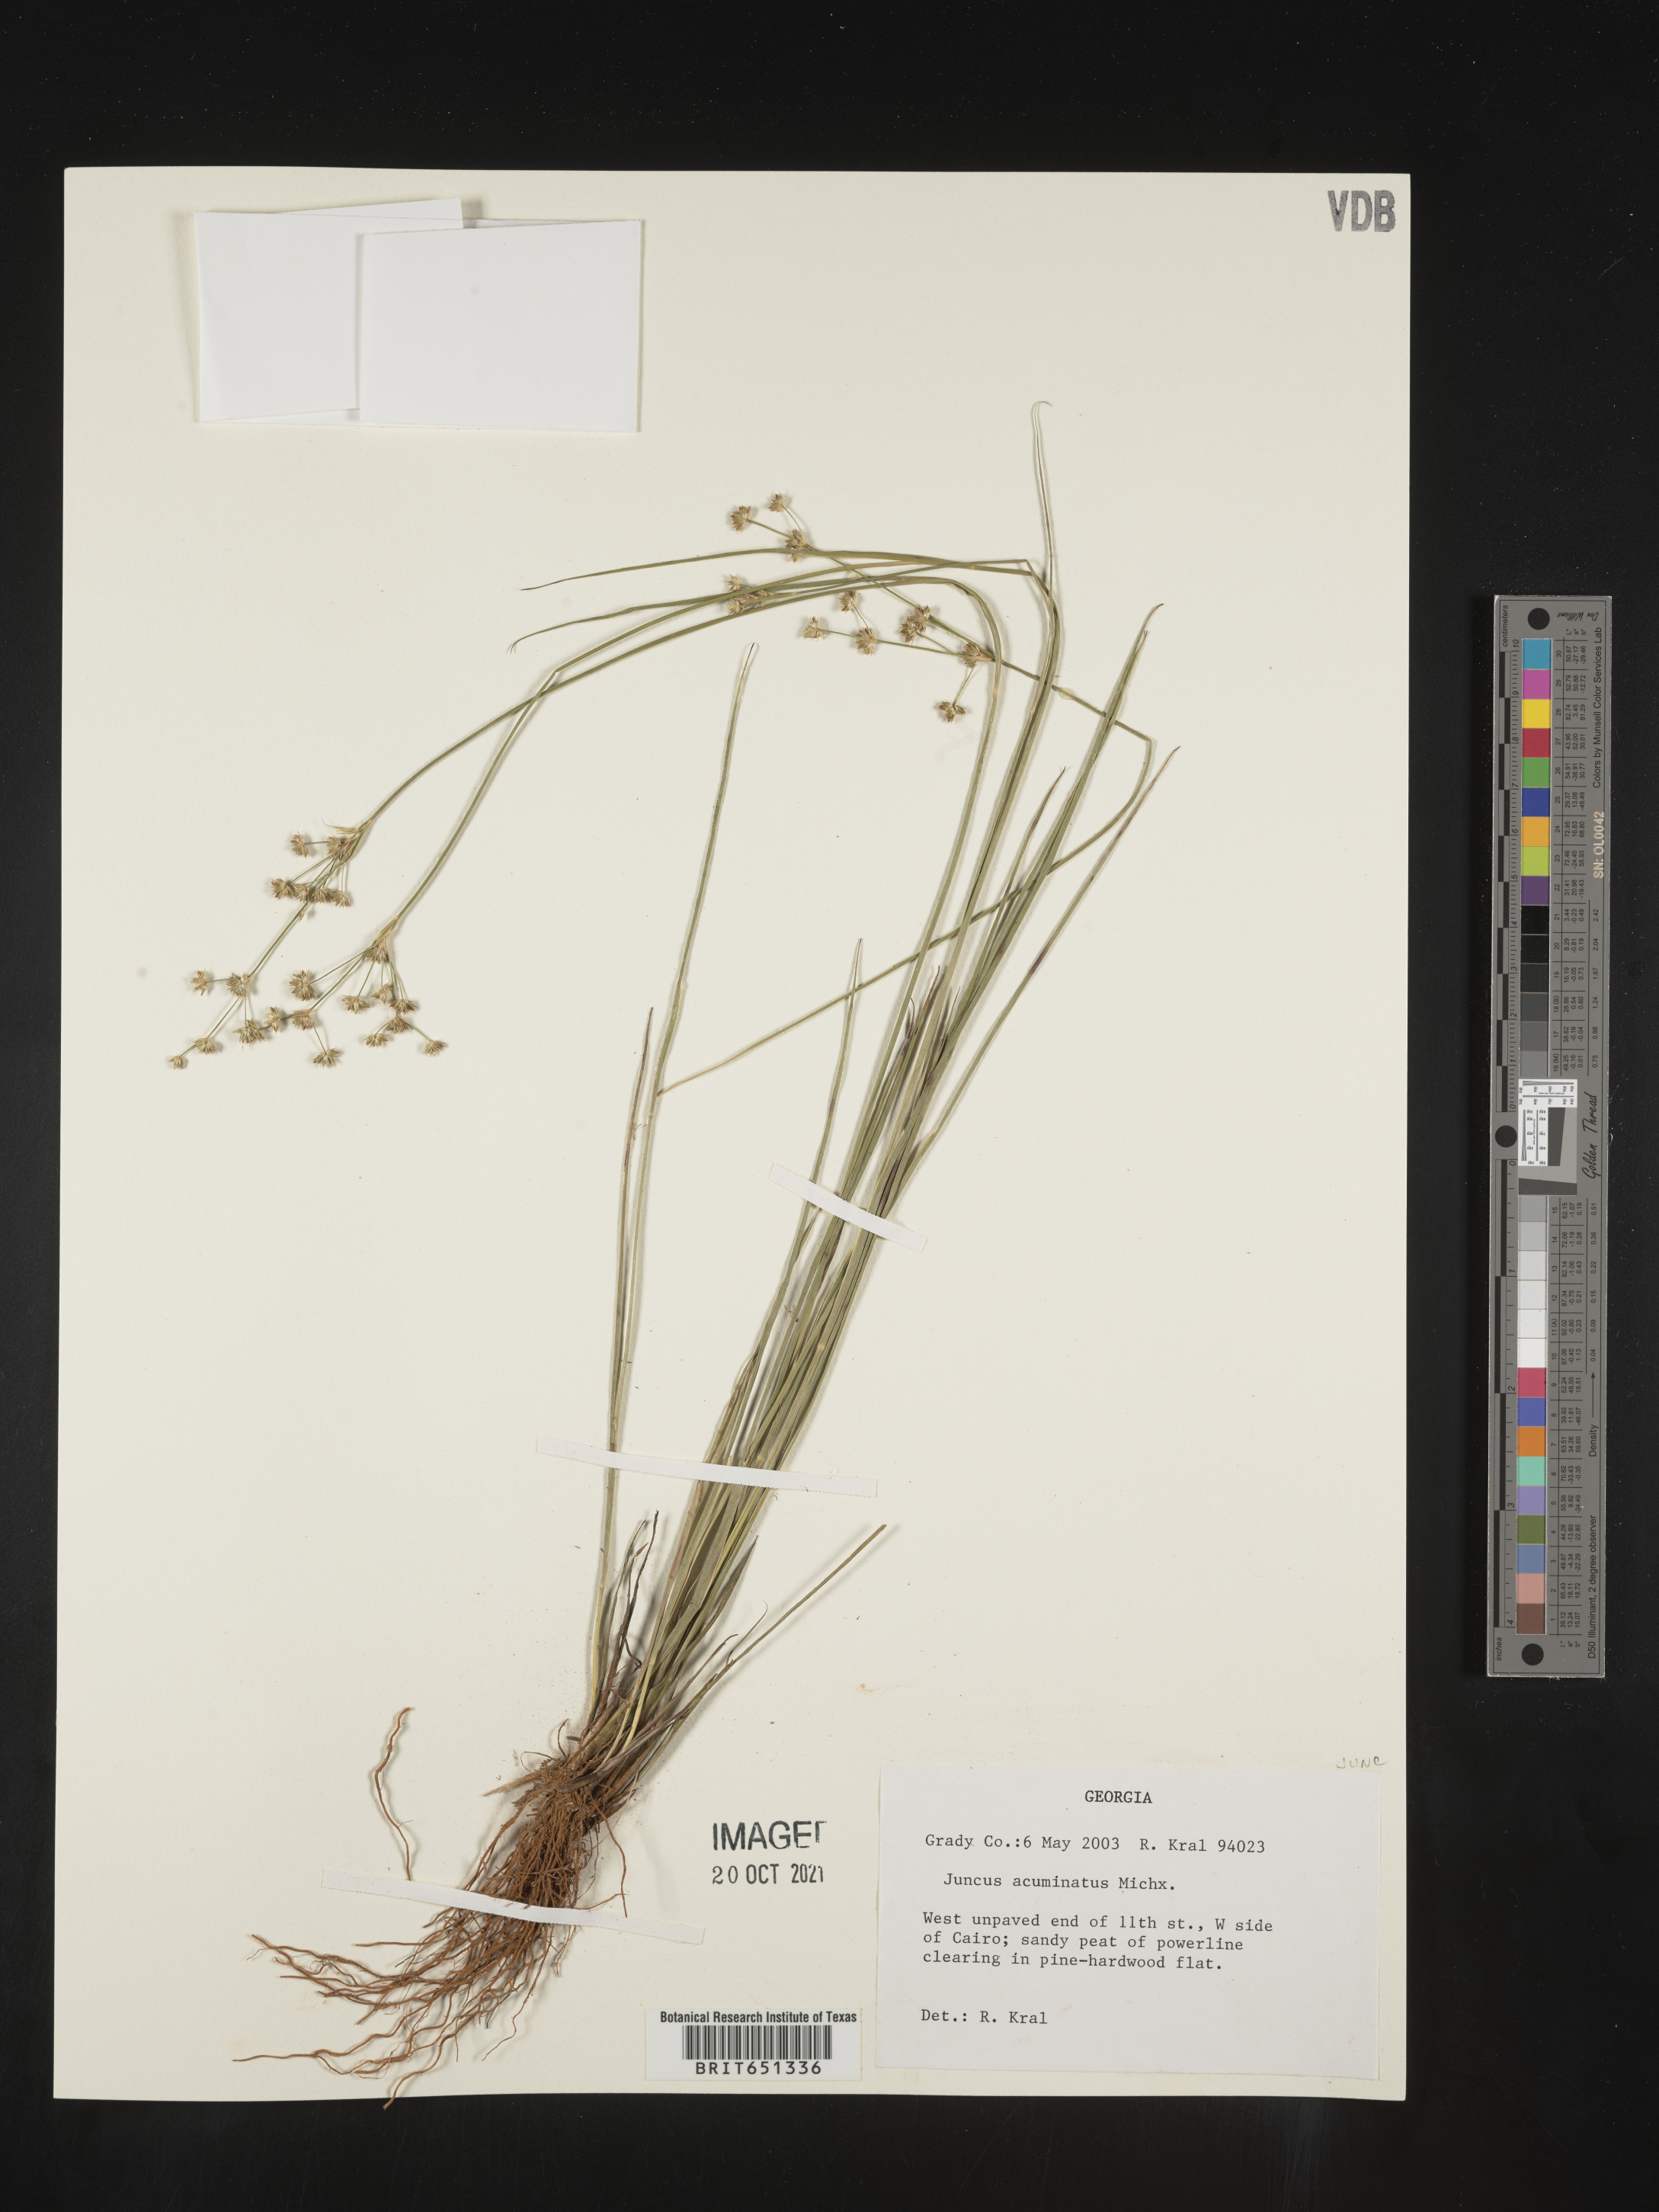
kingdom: Plantae
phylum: Tracheophyta
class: Liliopsida
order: Poales
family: Juncaceae
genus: Juncus
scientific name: Juncus acuminatus
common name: Knotty-leaved rush
